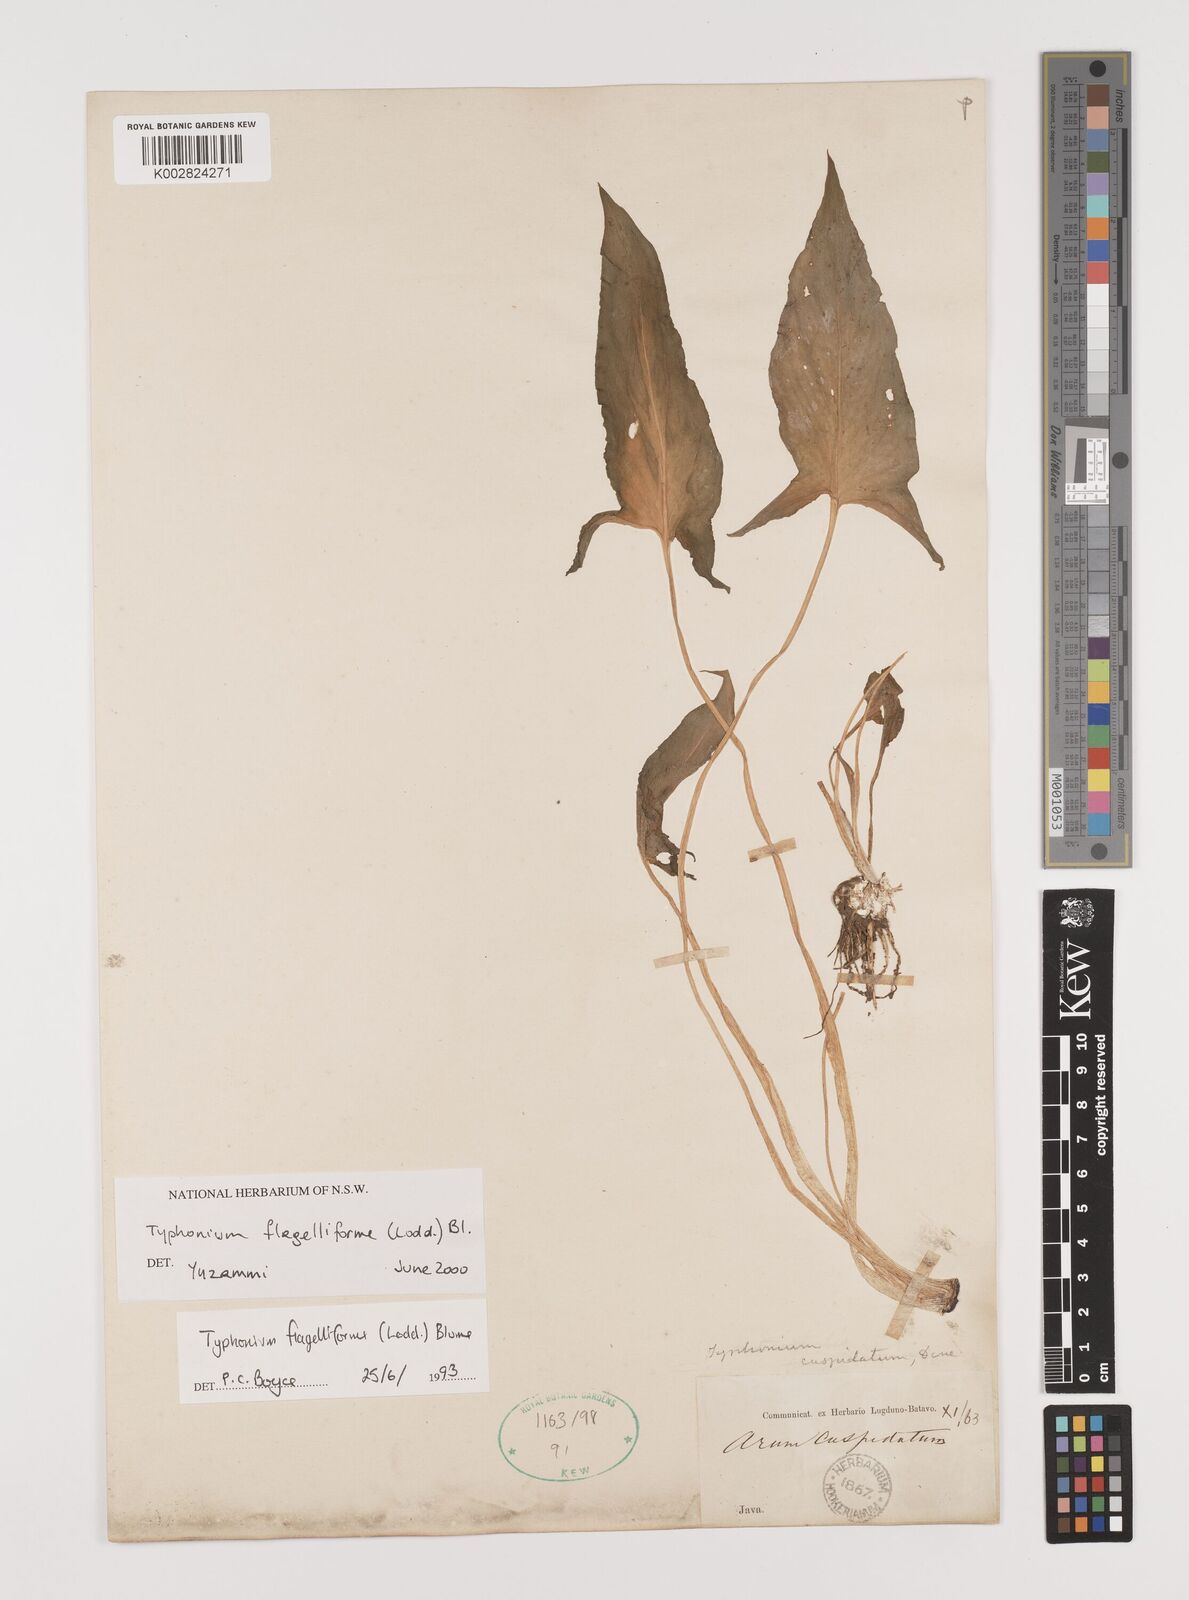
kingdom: Plantae
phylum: Tracheophyta
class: Liliopsida
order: Alismatales
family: Araceae
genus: Typhonium
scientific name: Typhonium flagelliforme
